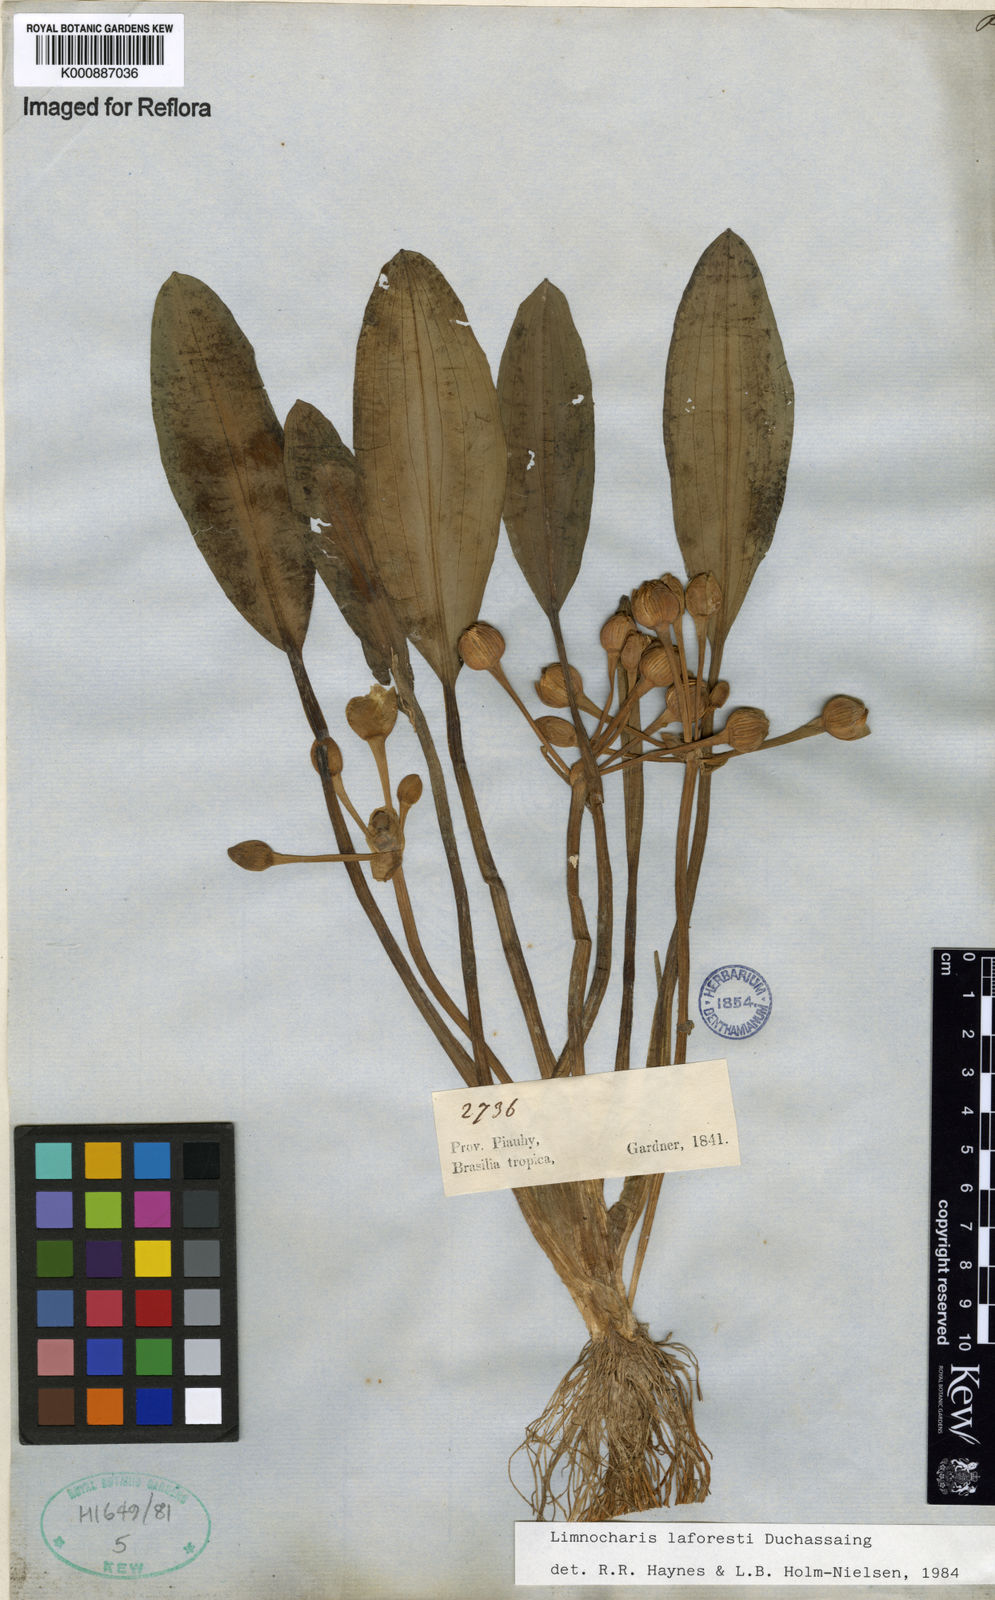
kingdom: Plantae
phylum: Tracheophyta
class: Liliopsida
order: Alismatales
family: Alismataceae
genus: Limnocharis
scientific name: Limnocharis laforestii
